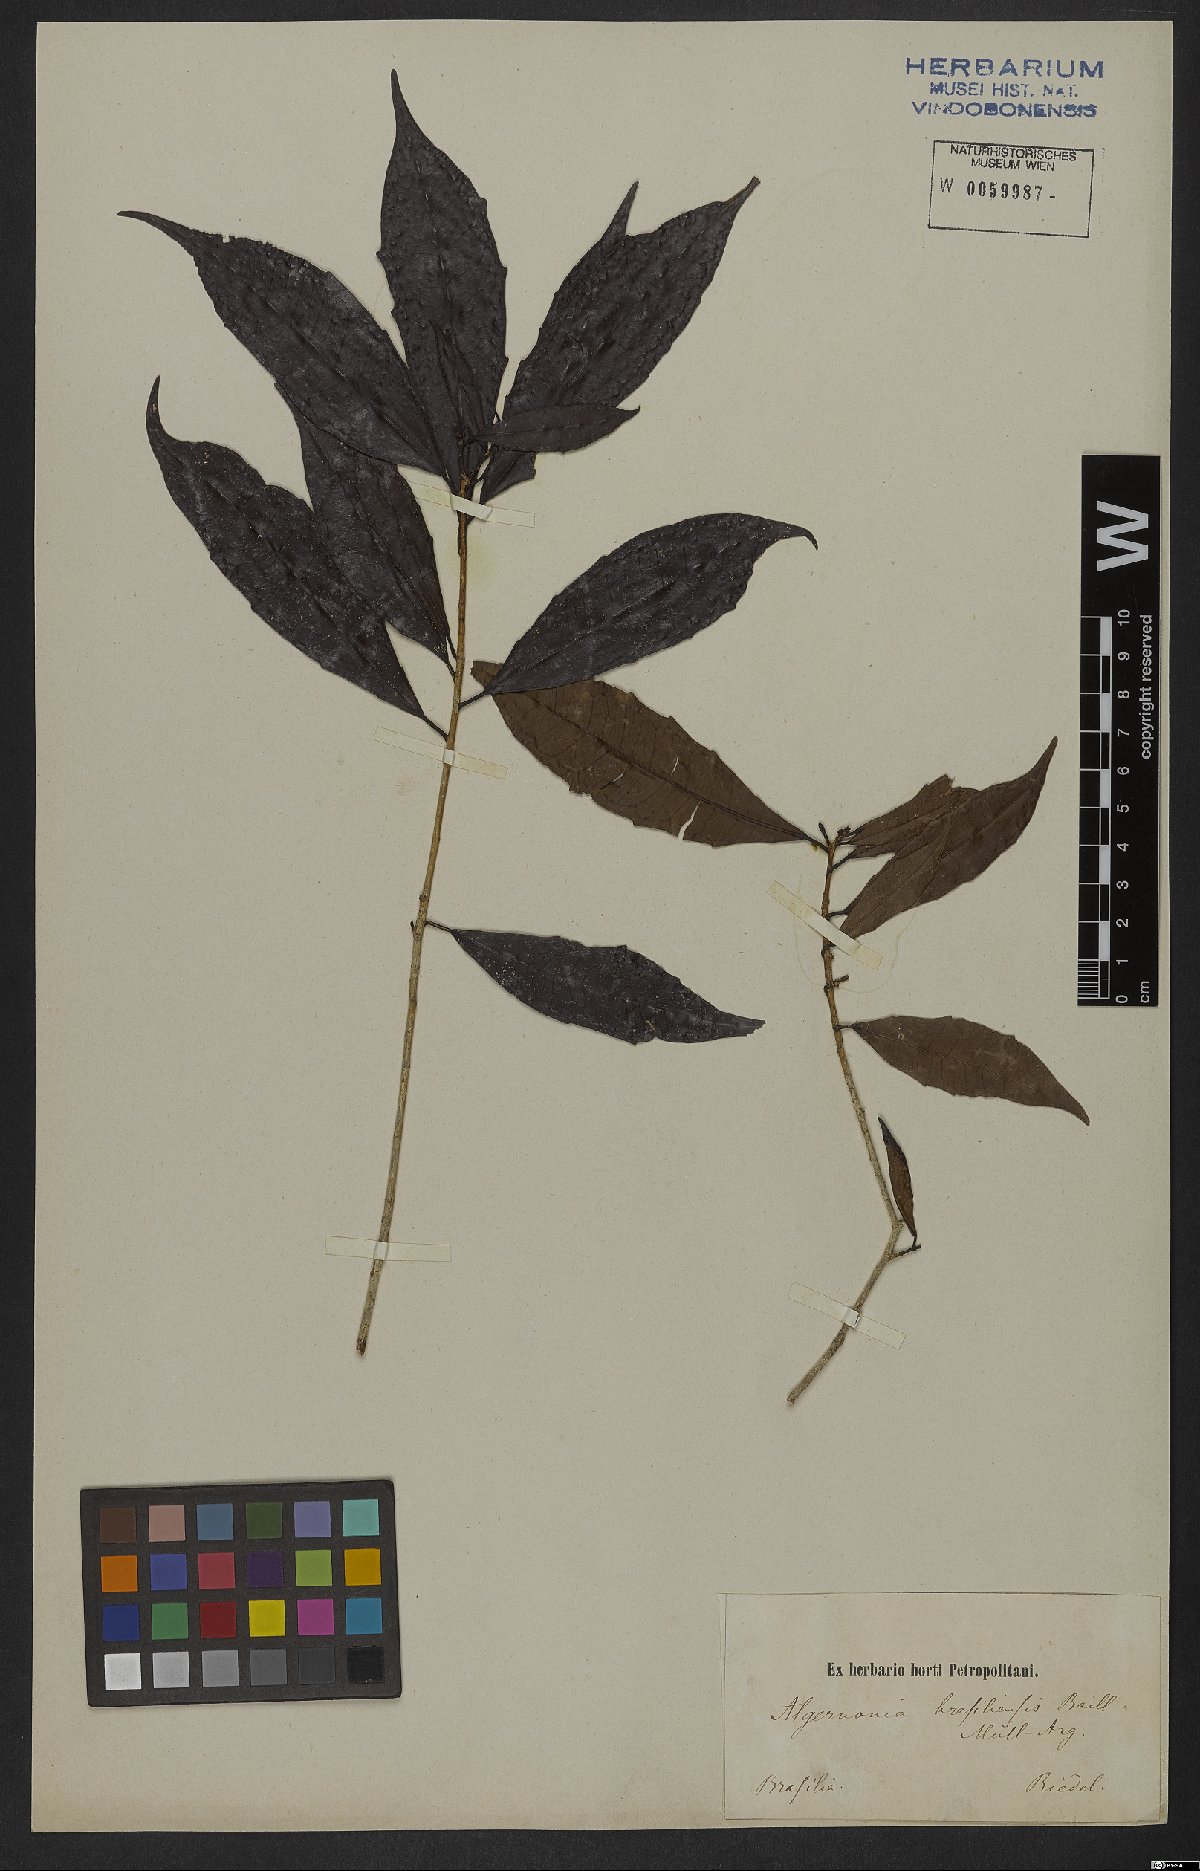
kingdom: Plantae
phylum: Tracheophyta
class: Magnoliopsida
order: Malpighiales
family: Euphorbiaceae
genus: Algernonia
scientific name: Algernonia brasiliensis
